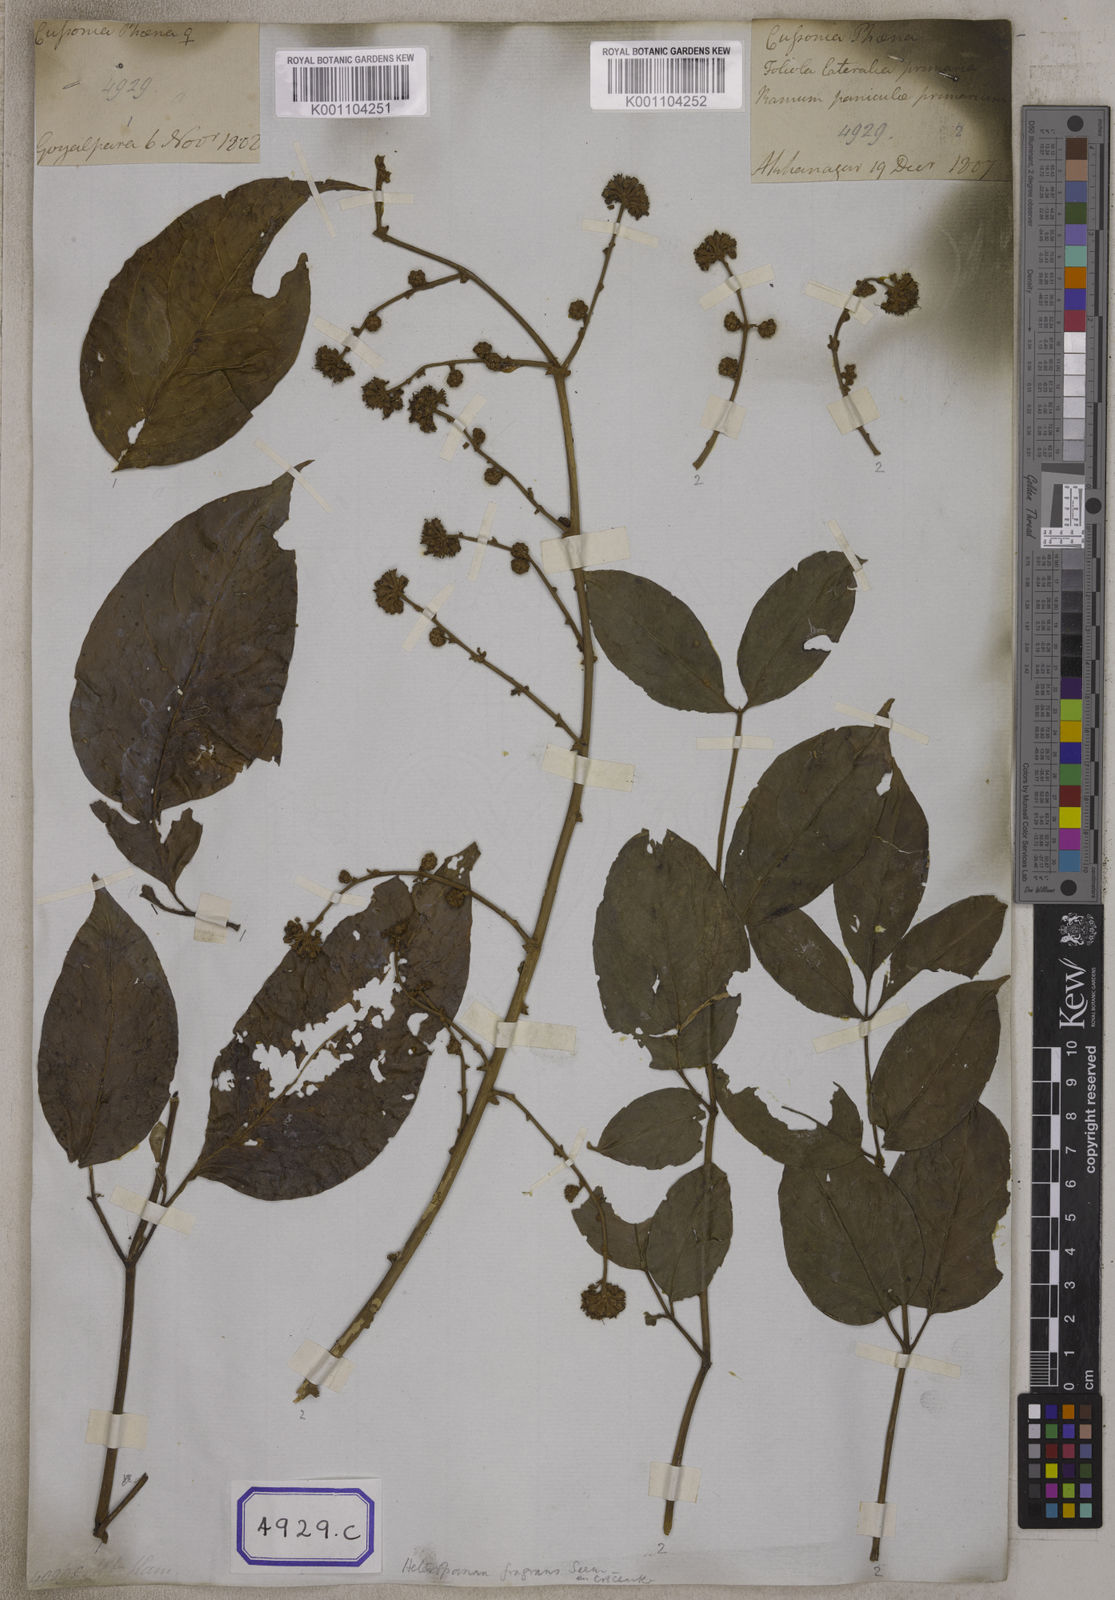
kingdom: Plantae
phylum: Tracheophyta
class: Magnoliopsida
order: Apiales
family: Araliaceae
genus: Heteropanax
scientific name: Heteropanax fragrans
